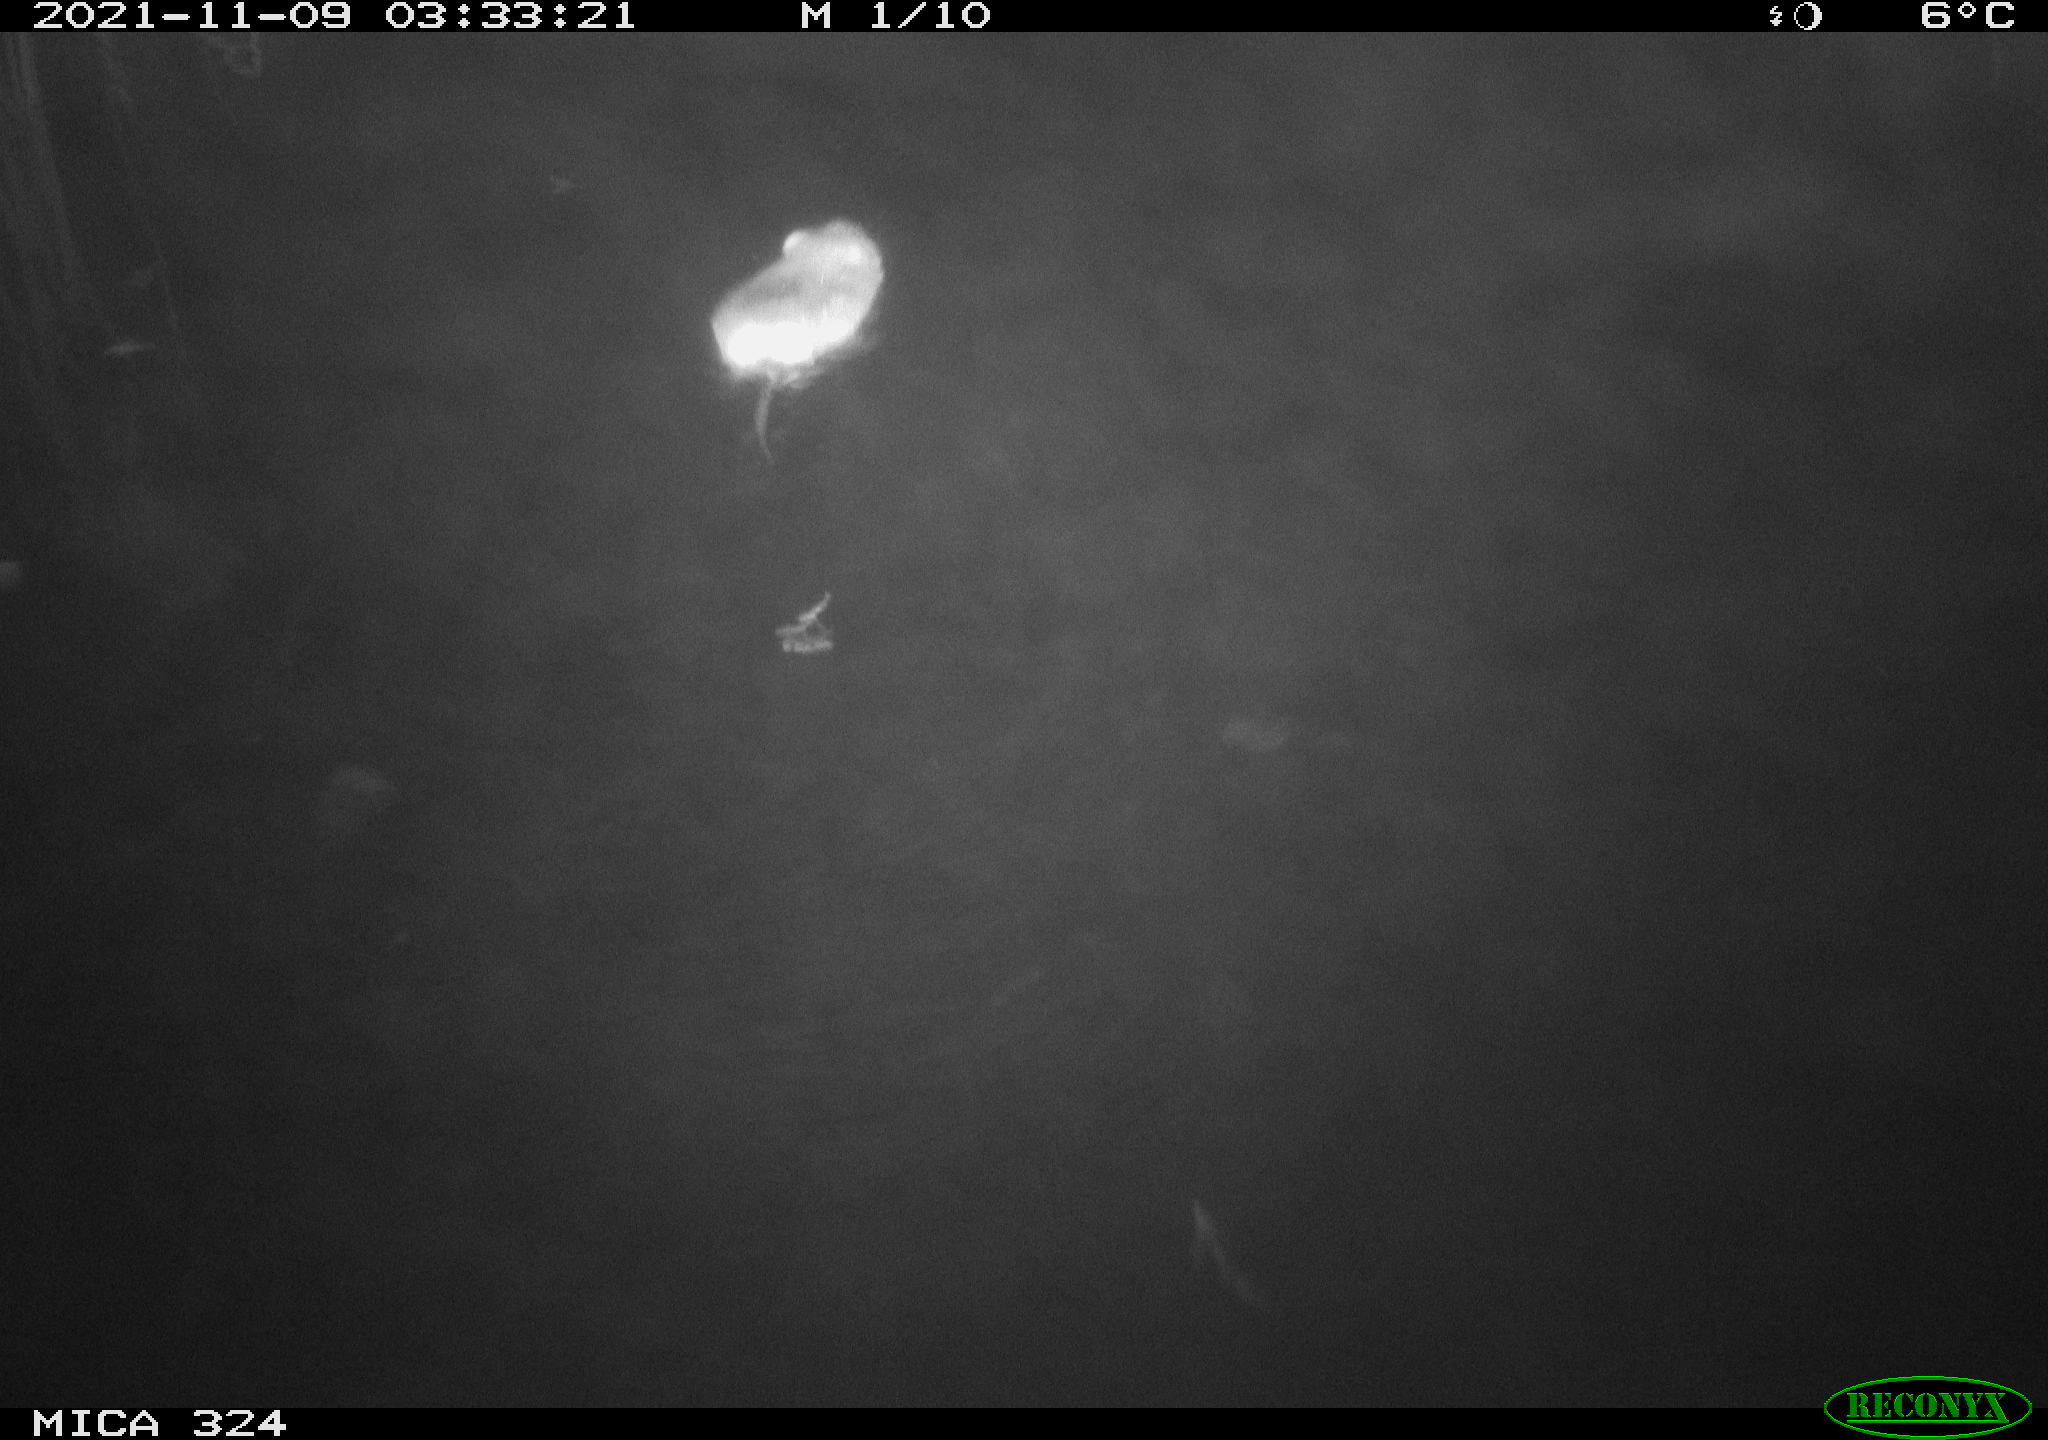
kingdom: Animalia
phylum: Chordata
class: Mammalia
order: Rodentia
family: Cricetidae
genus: Ondatra
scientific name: Ondatra zibethicus
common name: Muskrat
